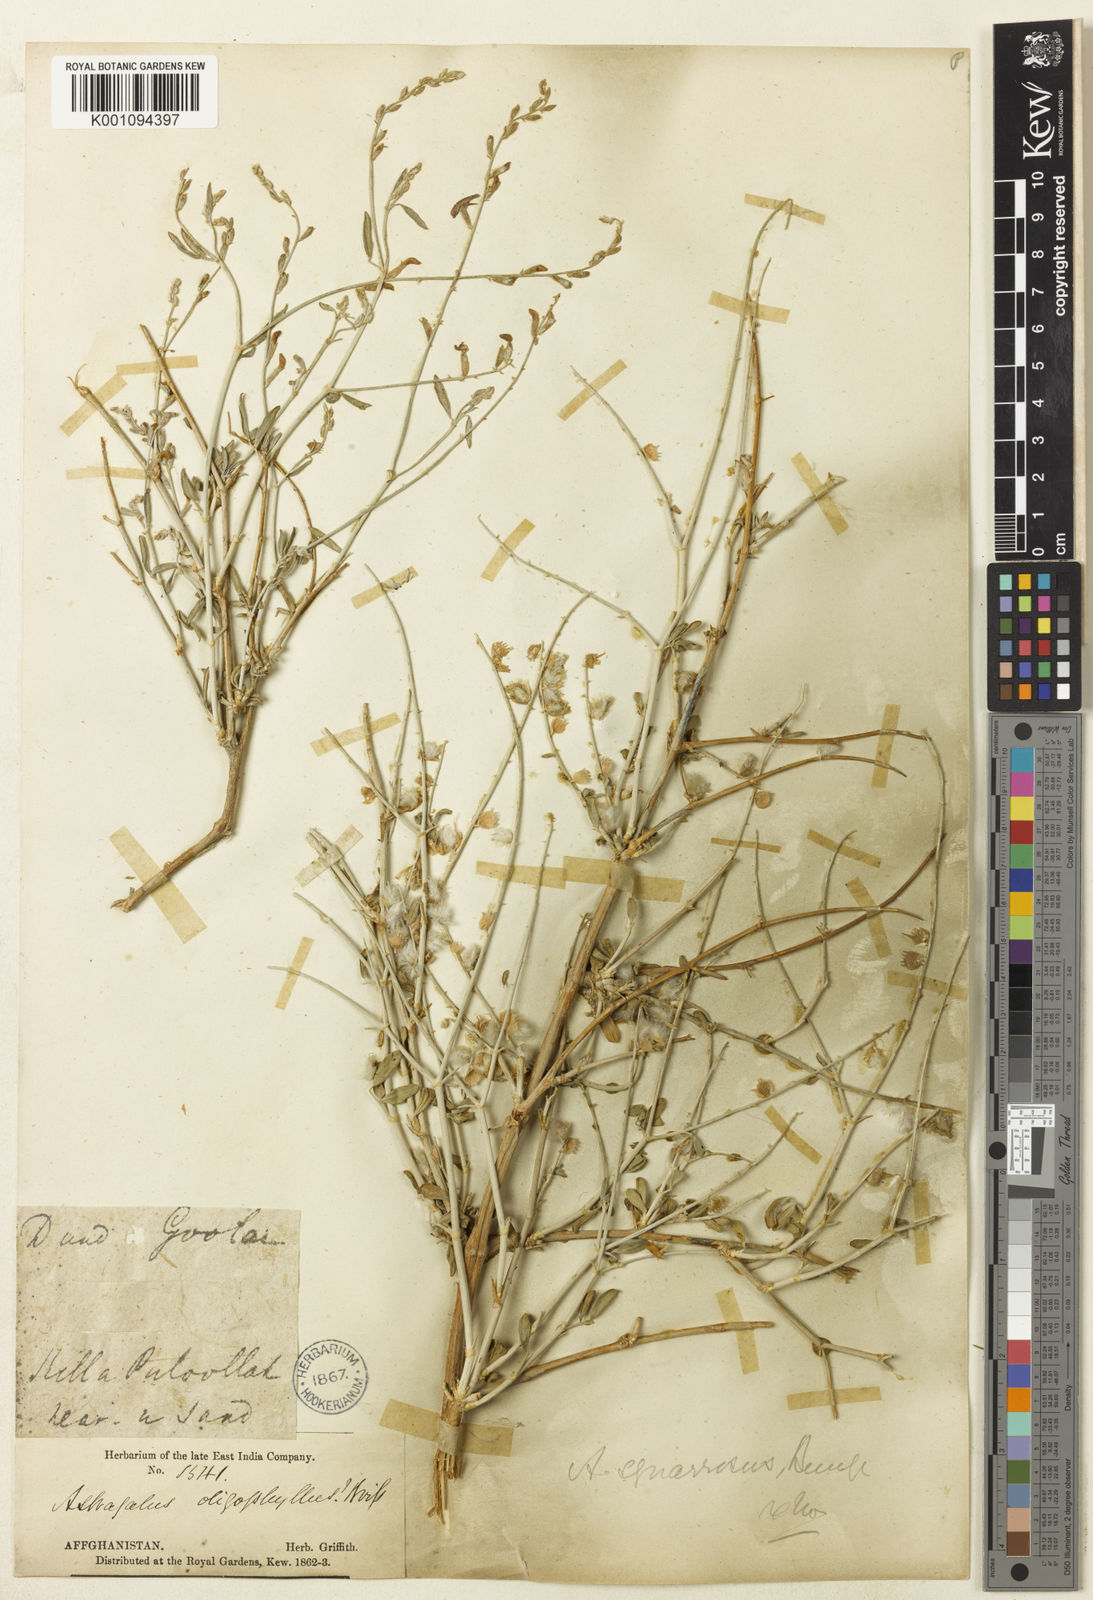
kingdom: Plantae
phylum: Tracheophyta
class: Magnoliopsida
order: Fabales
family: Fabaceae
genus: Astragalus
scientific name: Astragalus
